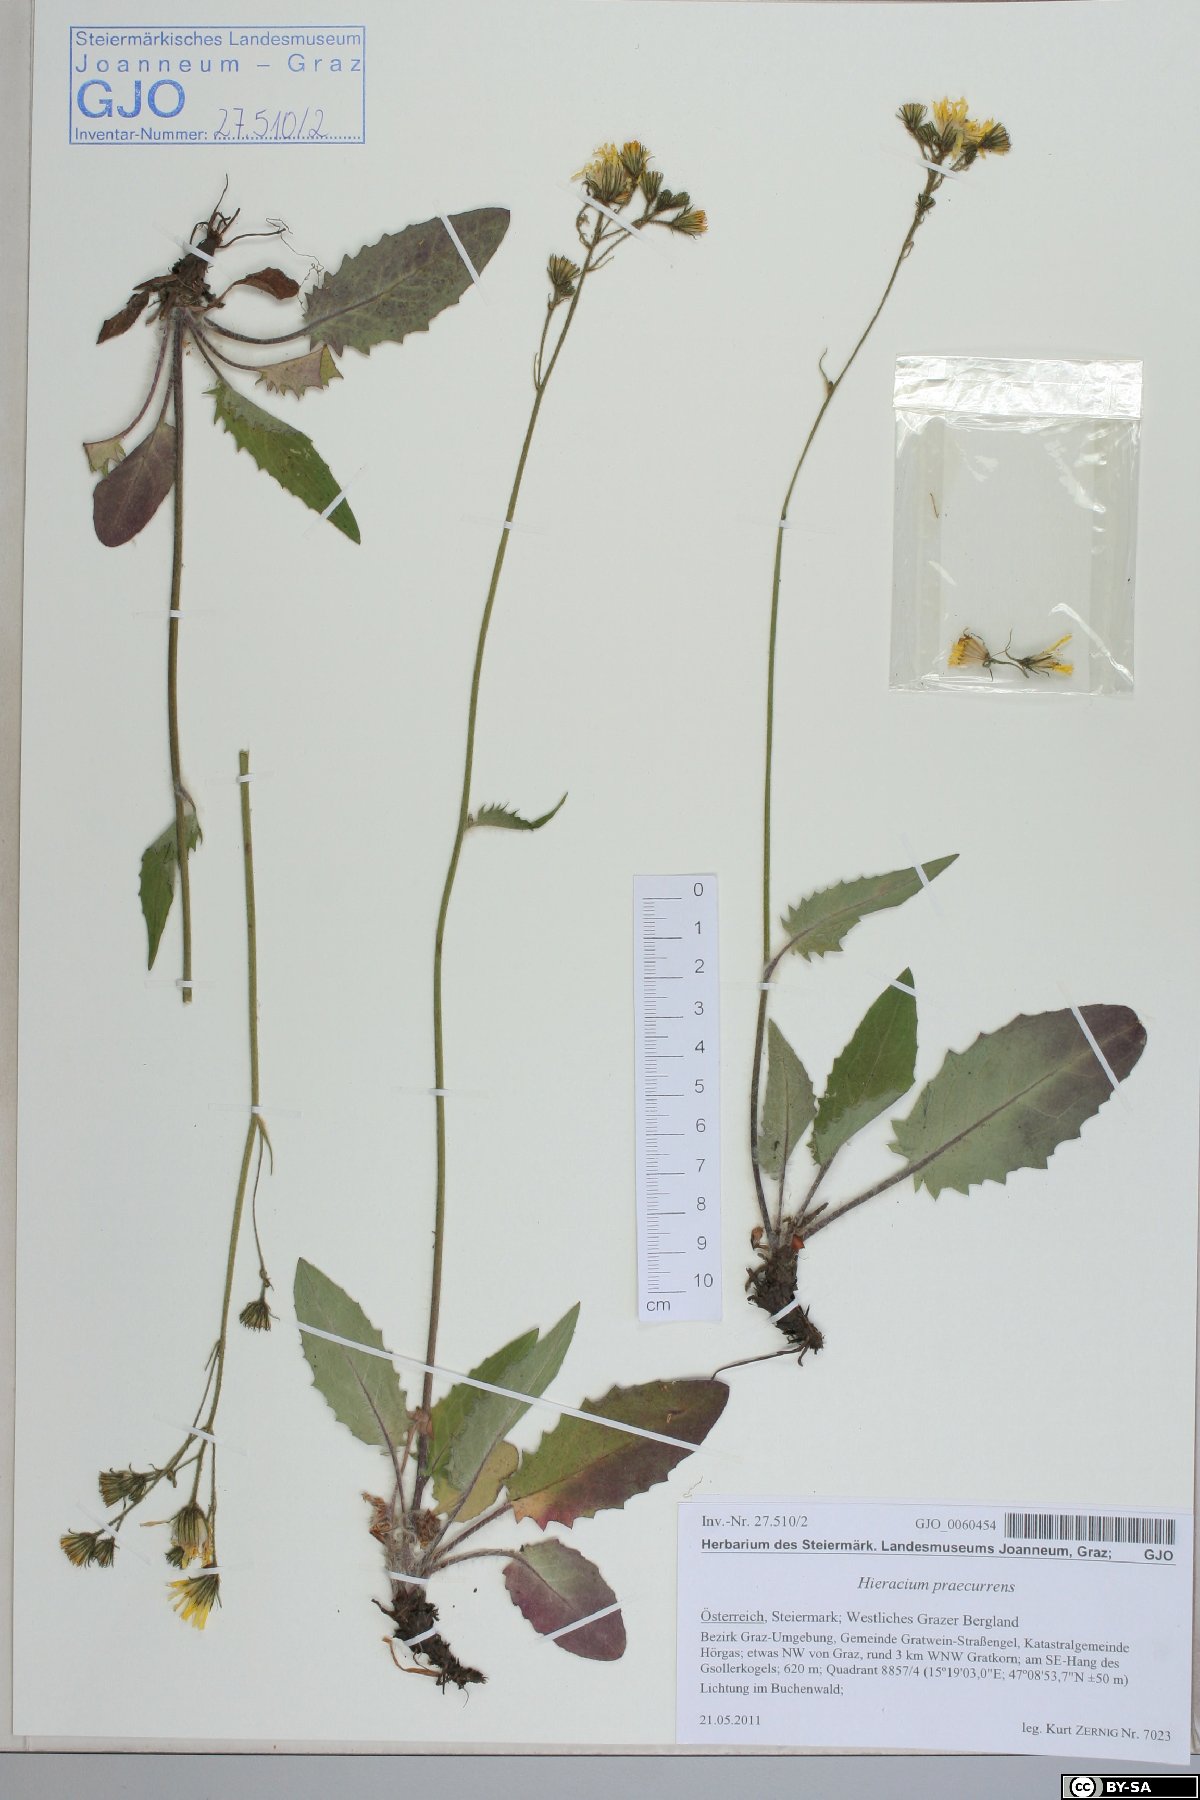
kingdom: Plantae
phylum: Tracheophyta
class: Magnoliopsida
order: Asterales
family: Asteraceae
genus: Hieracium
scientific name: Hieracium rotundatum
